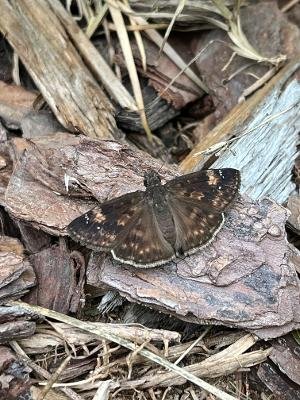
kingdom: Animalia
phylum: Arthropoda
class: Insecta
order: Lepidoptera
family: Hesperiidae
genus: Erynnis
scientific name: Erynnis zarucco
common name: Zarucco Duskywing
